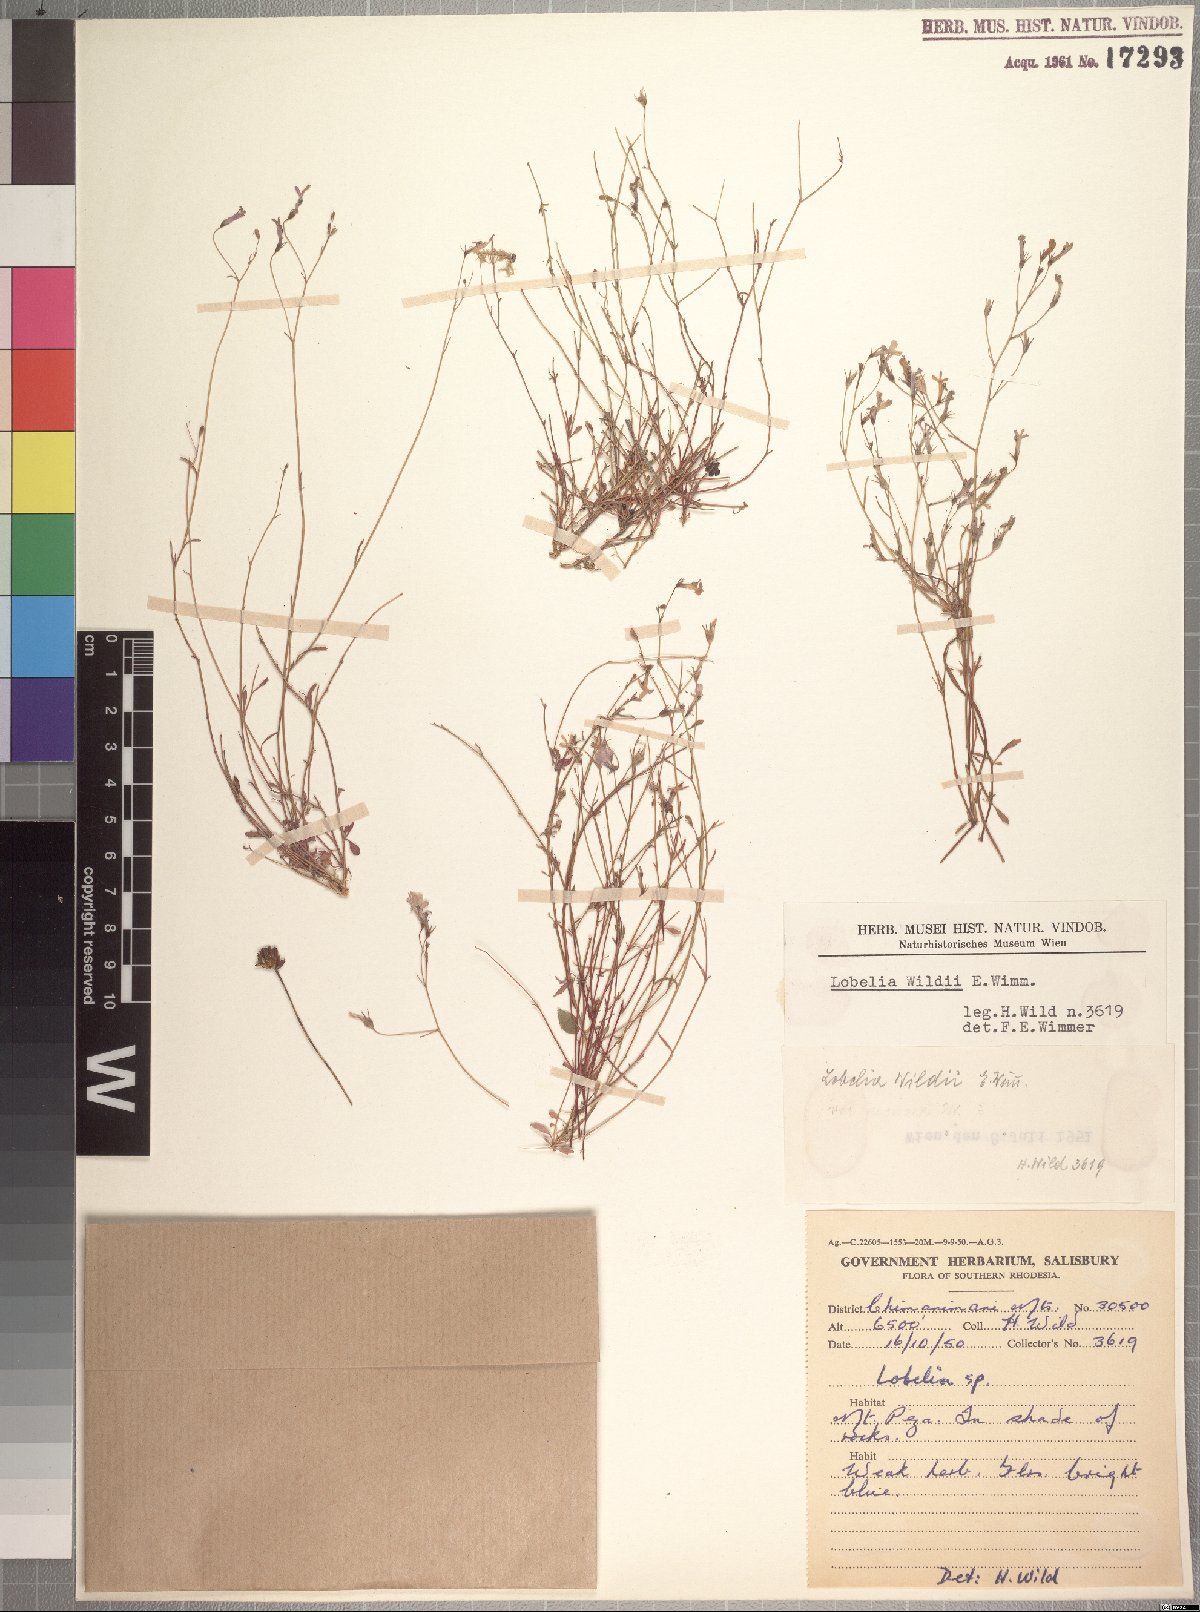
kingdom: Plantae
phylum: Tracheophyta
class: Magnoliopsida
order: Asterales
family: Campanulaceae
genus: Lobelia
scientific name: Lobelia erinus
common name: Edging lobelia
